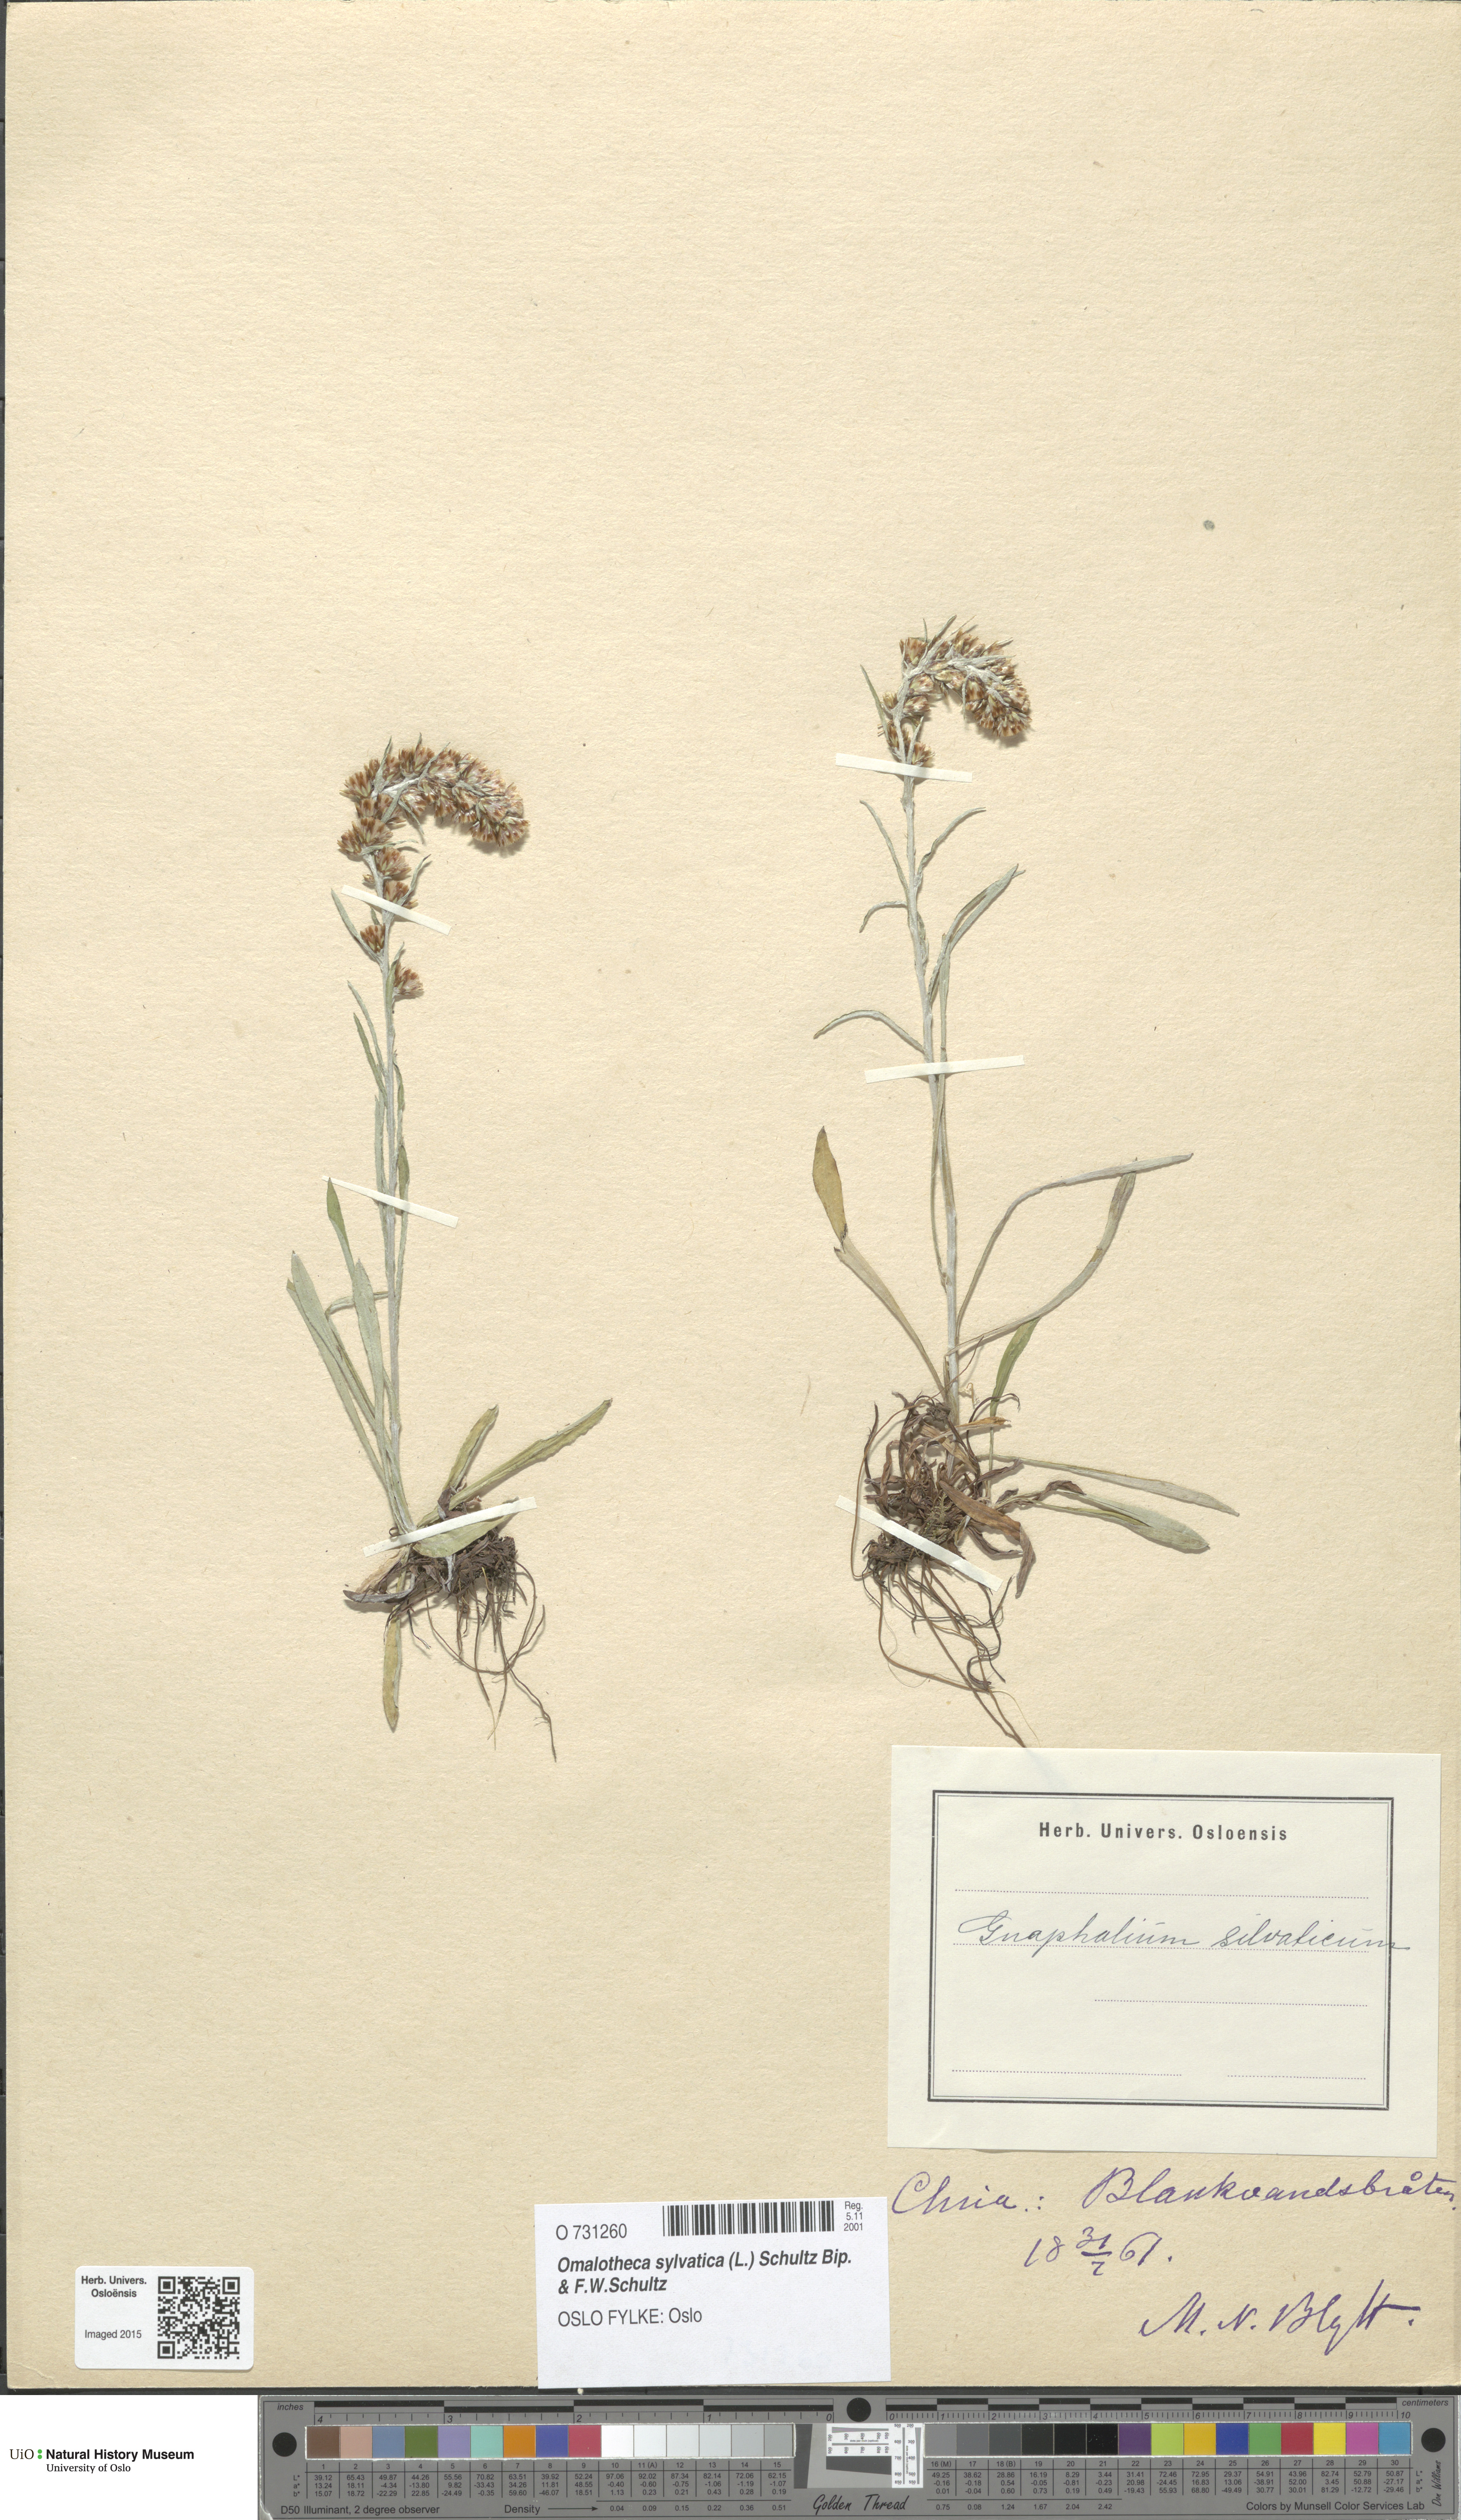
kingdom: Plantae
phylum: Tracheophyta
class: Magnoliopsida
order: Asterales
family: Asteraceae
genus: Omalotheca
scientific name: Omalotheca sylvatica
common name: Heath cudweed
